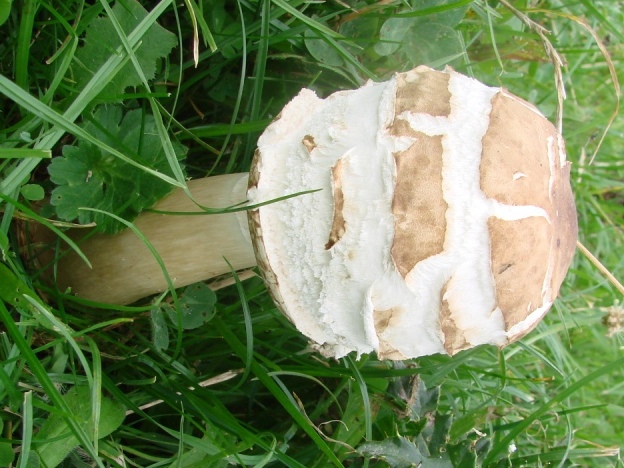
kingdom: Fungi
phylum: Basidiomycota
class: Agaricomycetes
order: Agaricales
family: Agaricaceae
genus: Macrolepiota
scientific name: Macrolepiota procera
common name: stor kæmpeparasolhat
